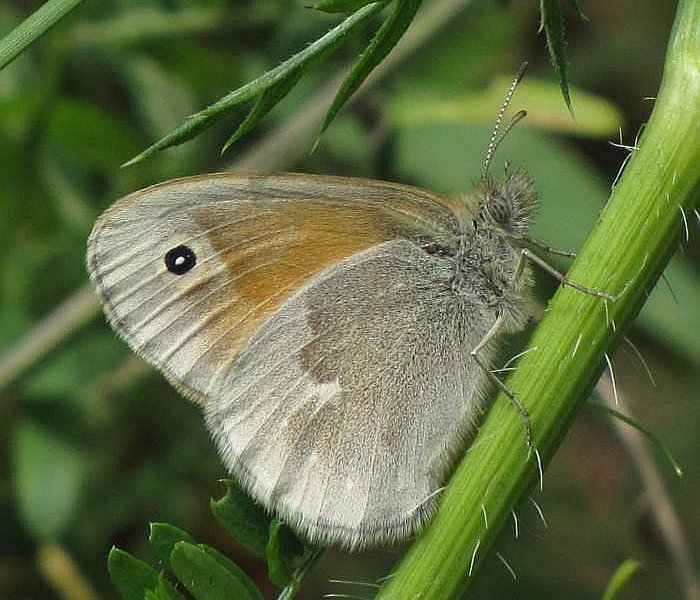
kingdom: Animalia
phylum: Arthropoda
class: Insecta
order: Lepidoptera
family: Nymphalidae
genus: Coenonympha
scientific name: Coenonympha tullia
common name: Large Heath
